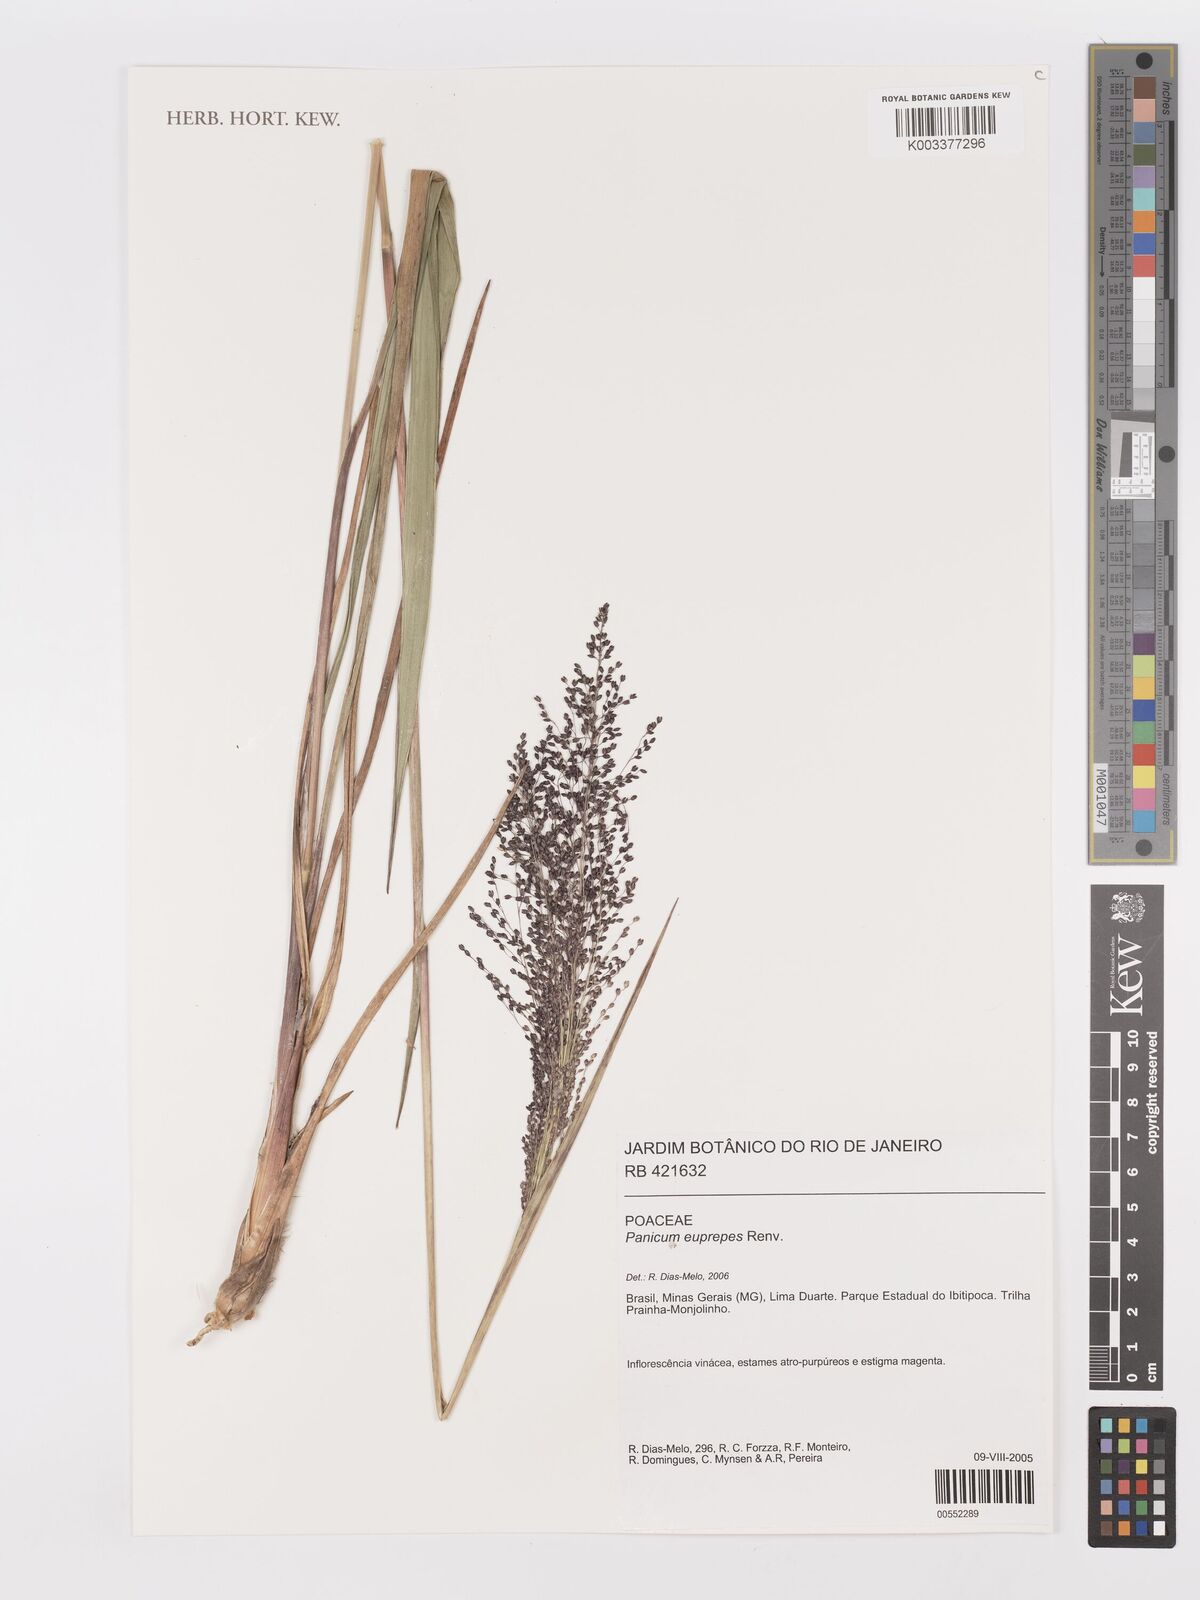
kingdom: Plantae
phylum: Tracheophyta
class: Liliopsida
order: Poales
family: Poaceae
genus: Apochloa
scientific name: Apochloa euprepes
